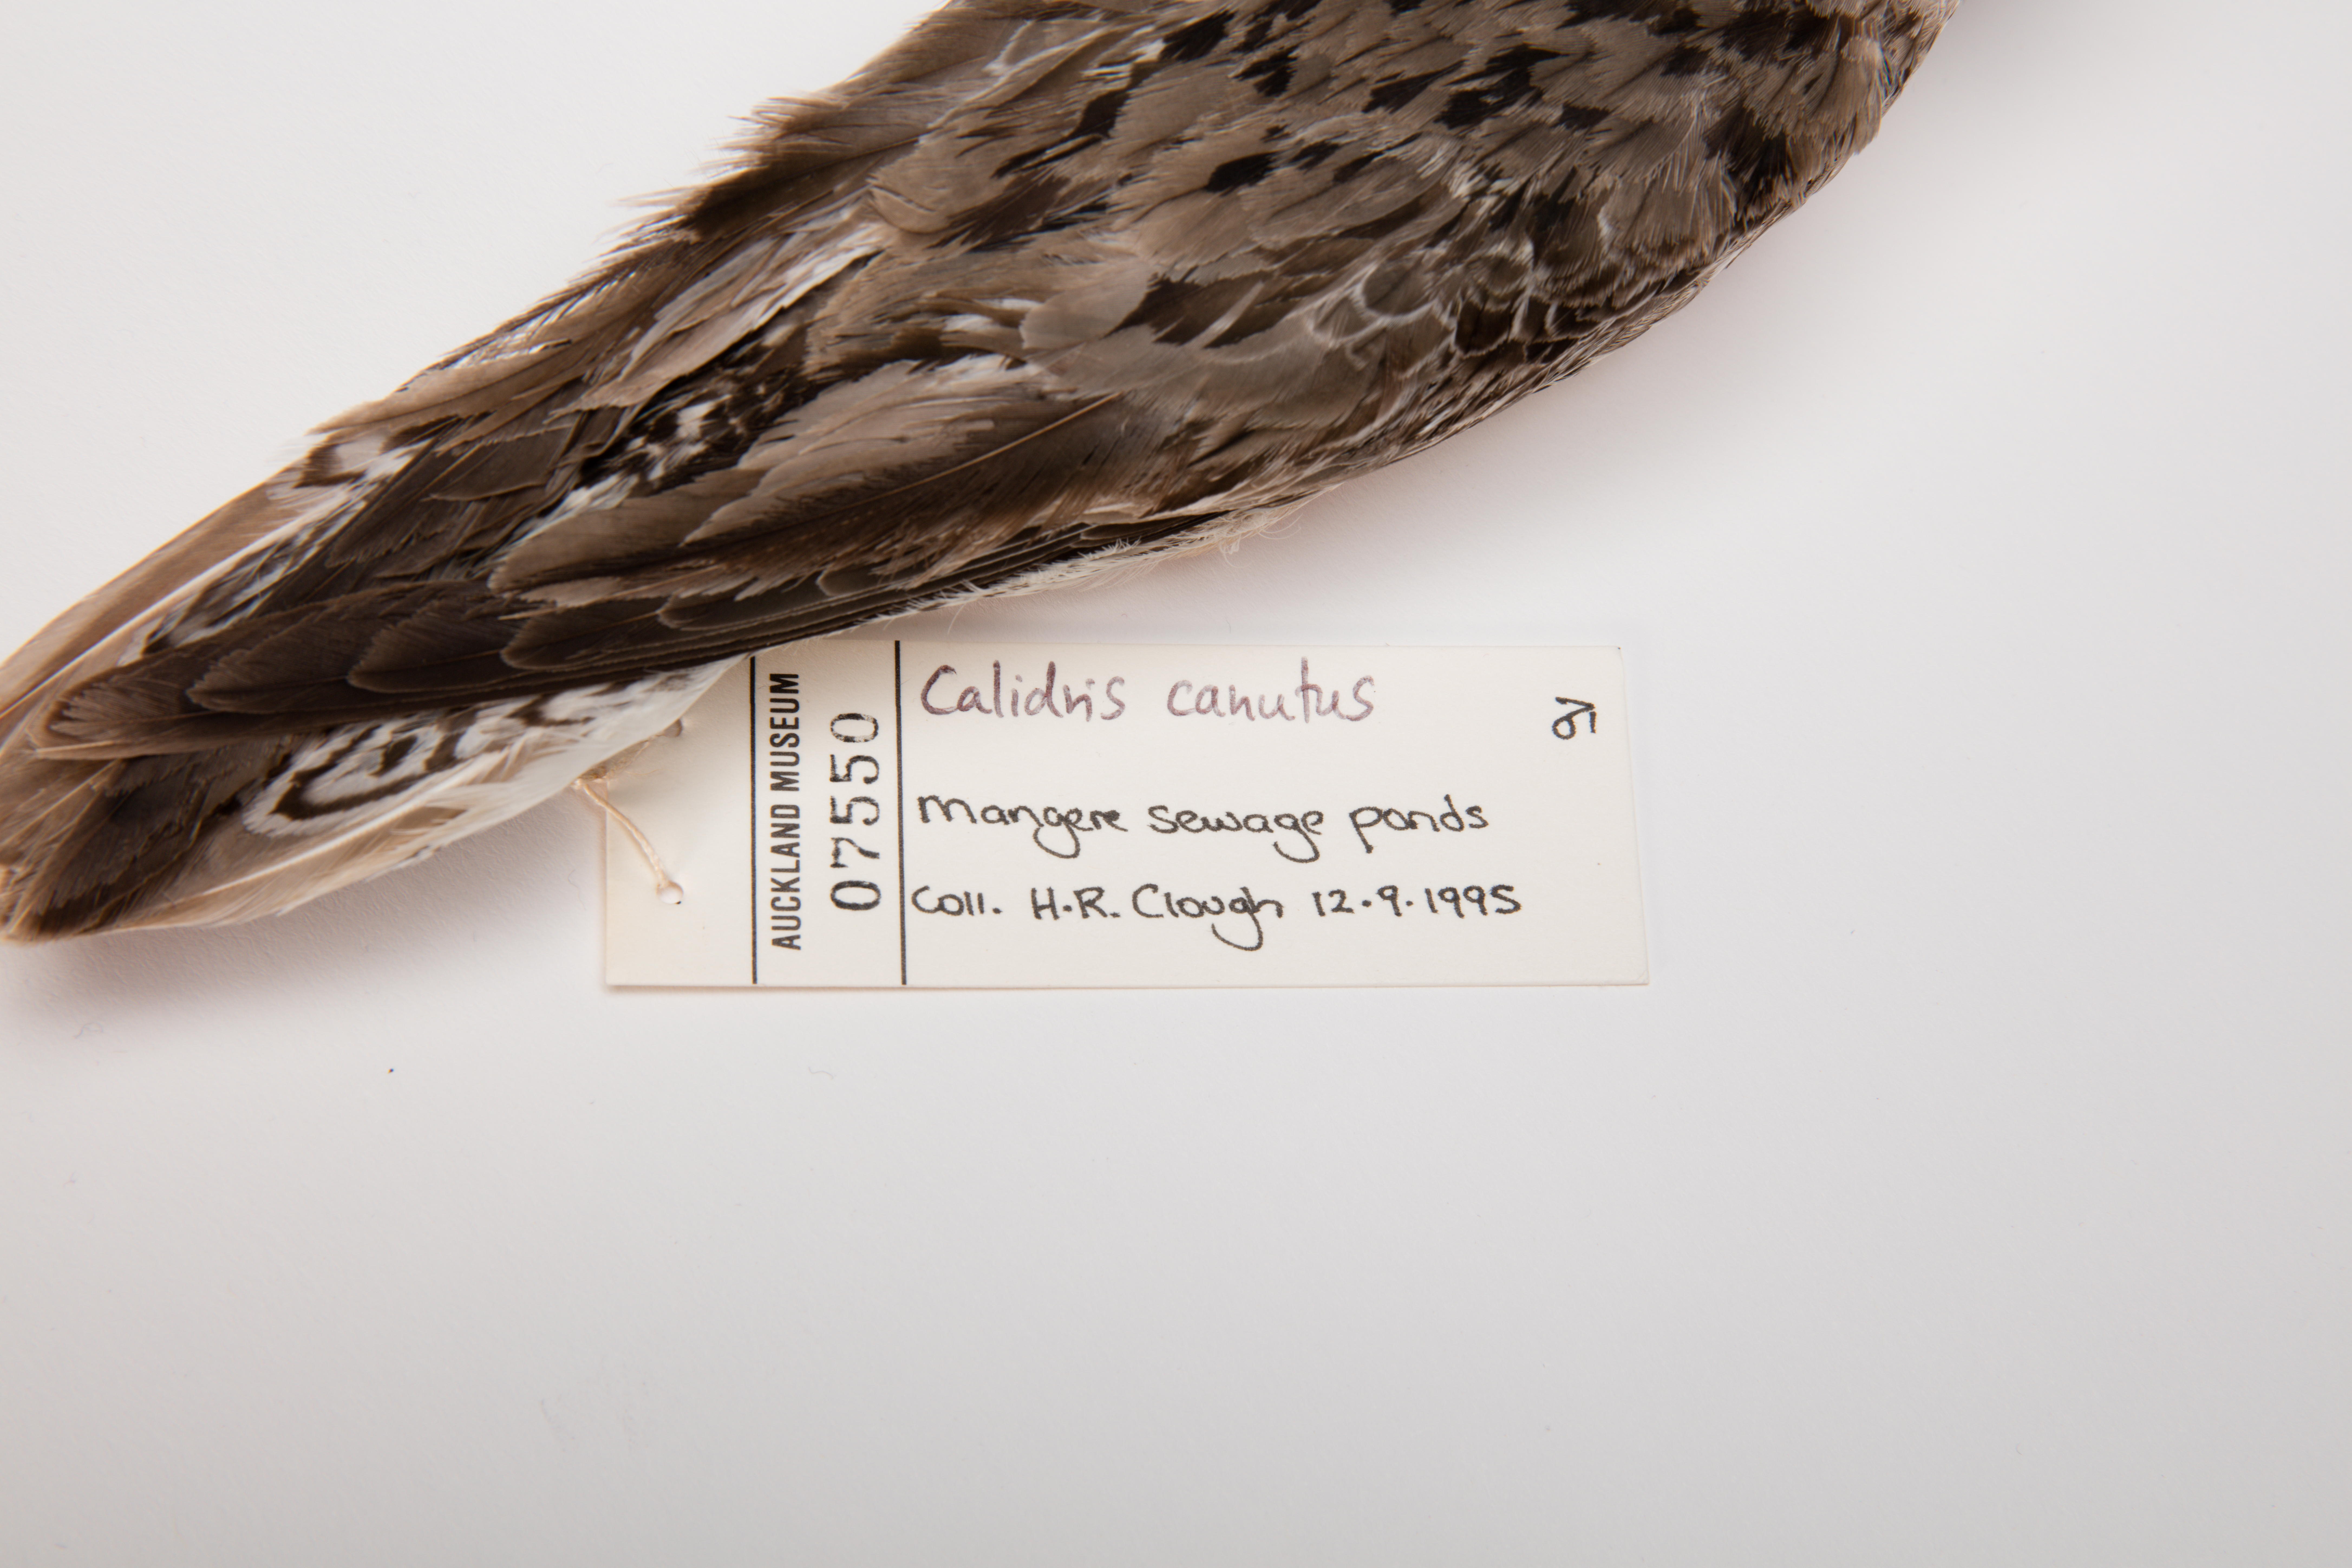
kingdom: Animalia
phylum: Chordata
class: Aves
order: Charadriiformes
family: Scolopacidae
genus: Calidris
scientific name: Calidris canutus
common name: Red knot
